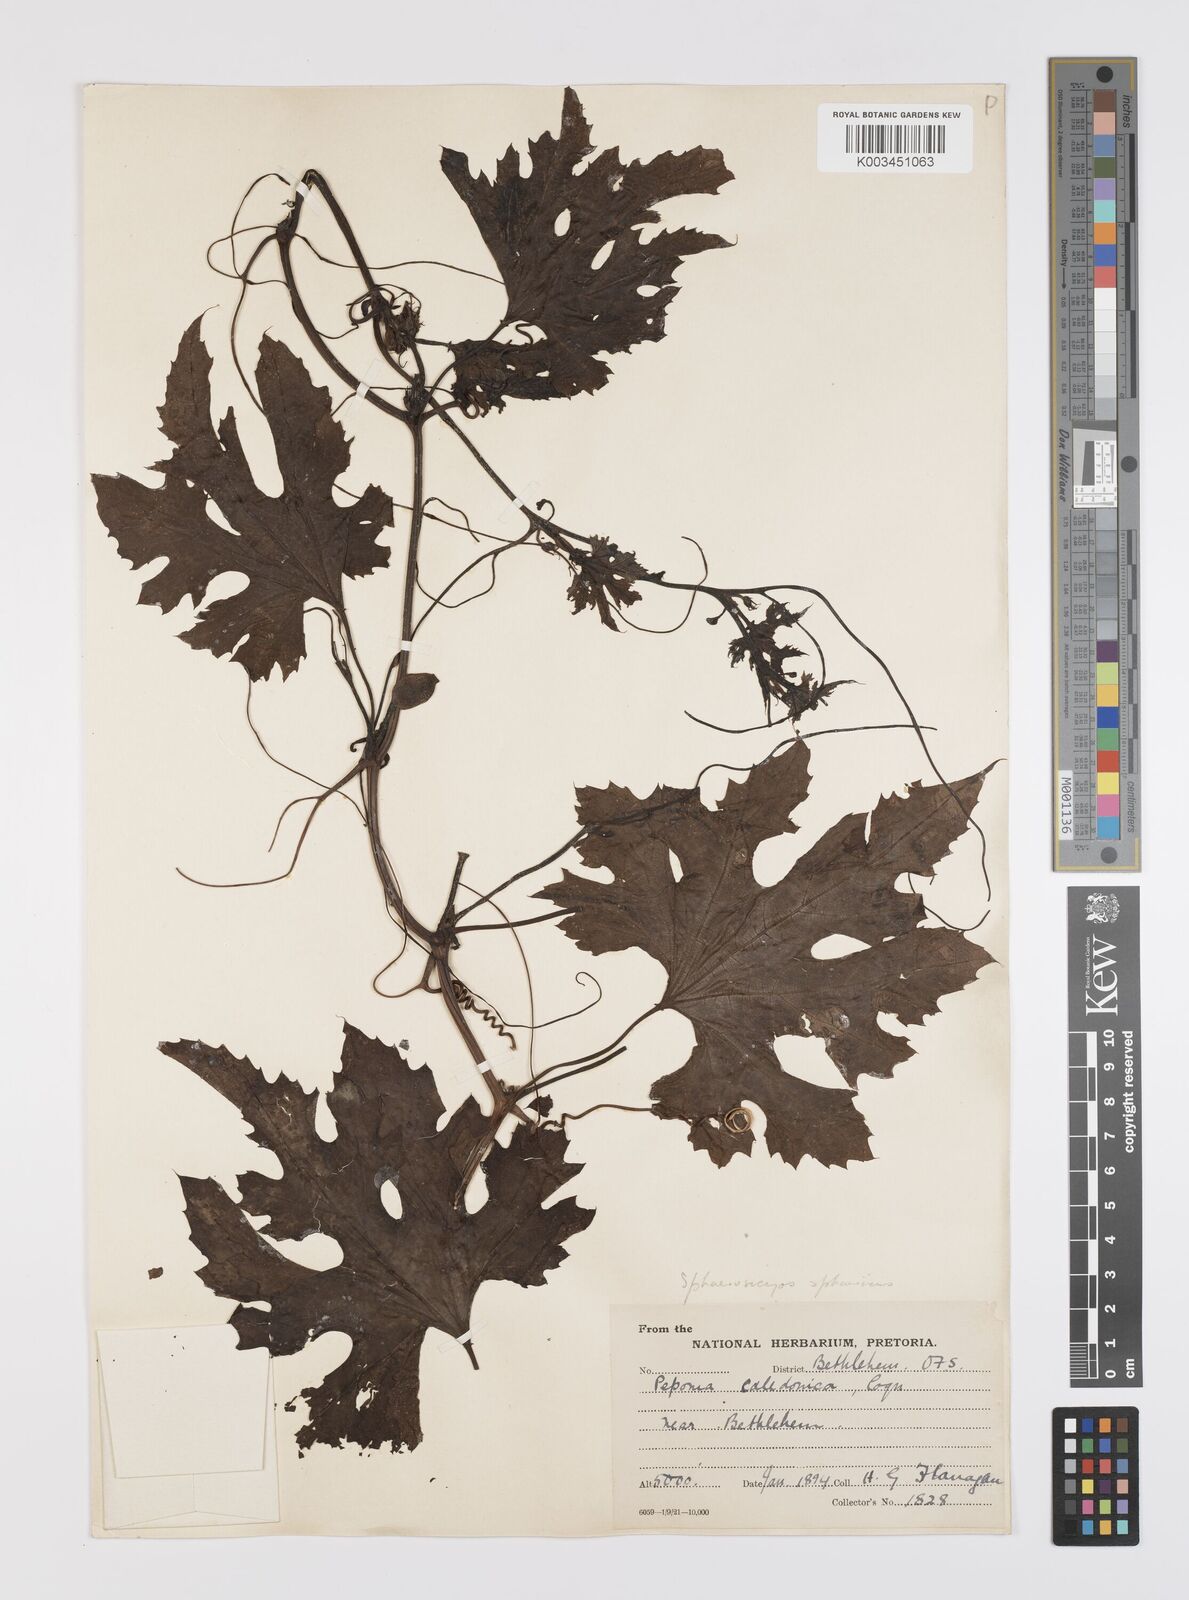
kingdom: Plantae
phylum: Tracheophyta
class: Magnoliopsida
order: Cucurbitales
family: Cucurbitaceae
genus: Lagenaria
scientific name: Lagenaria sphaerica
